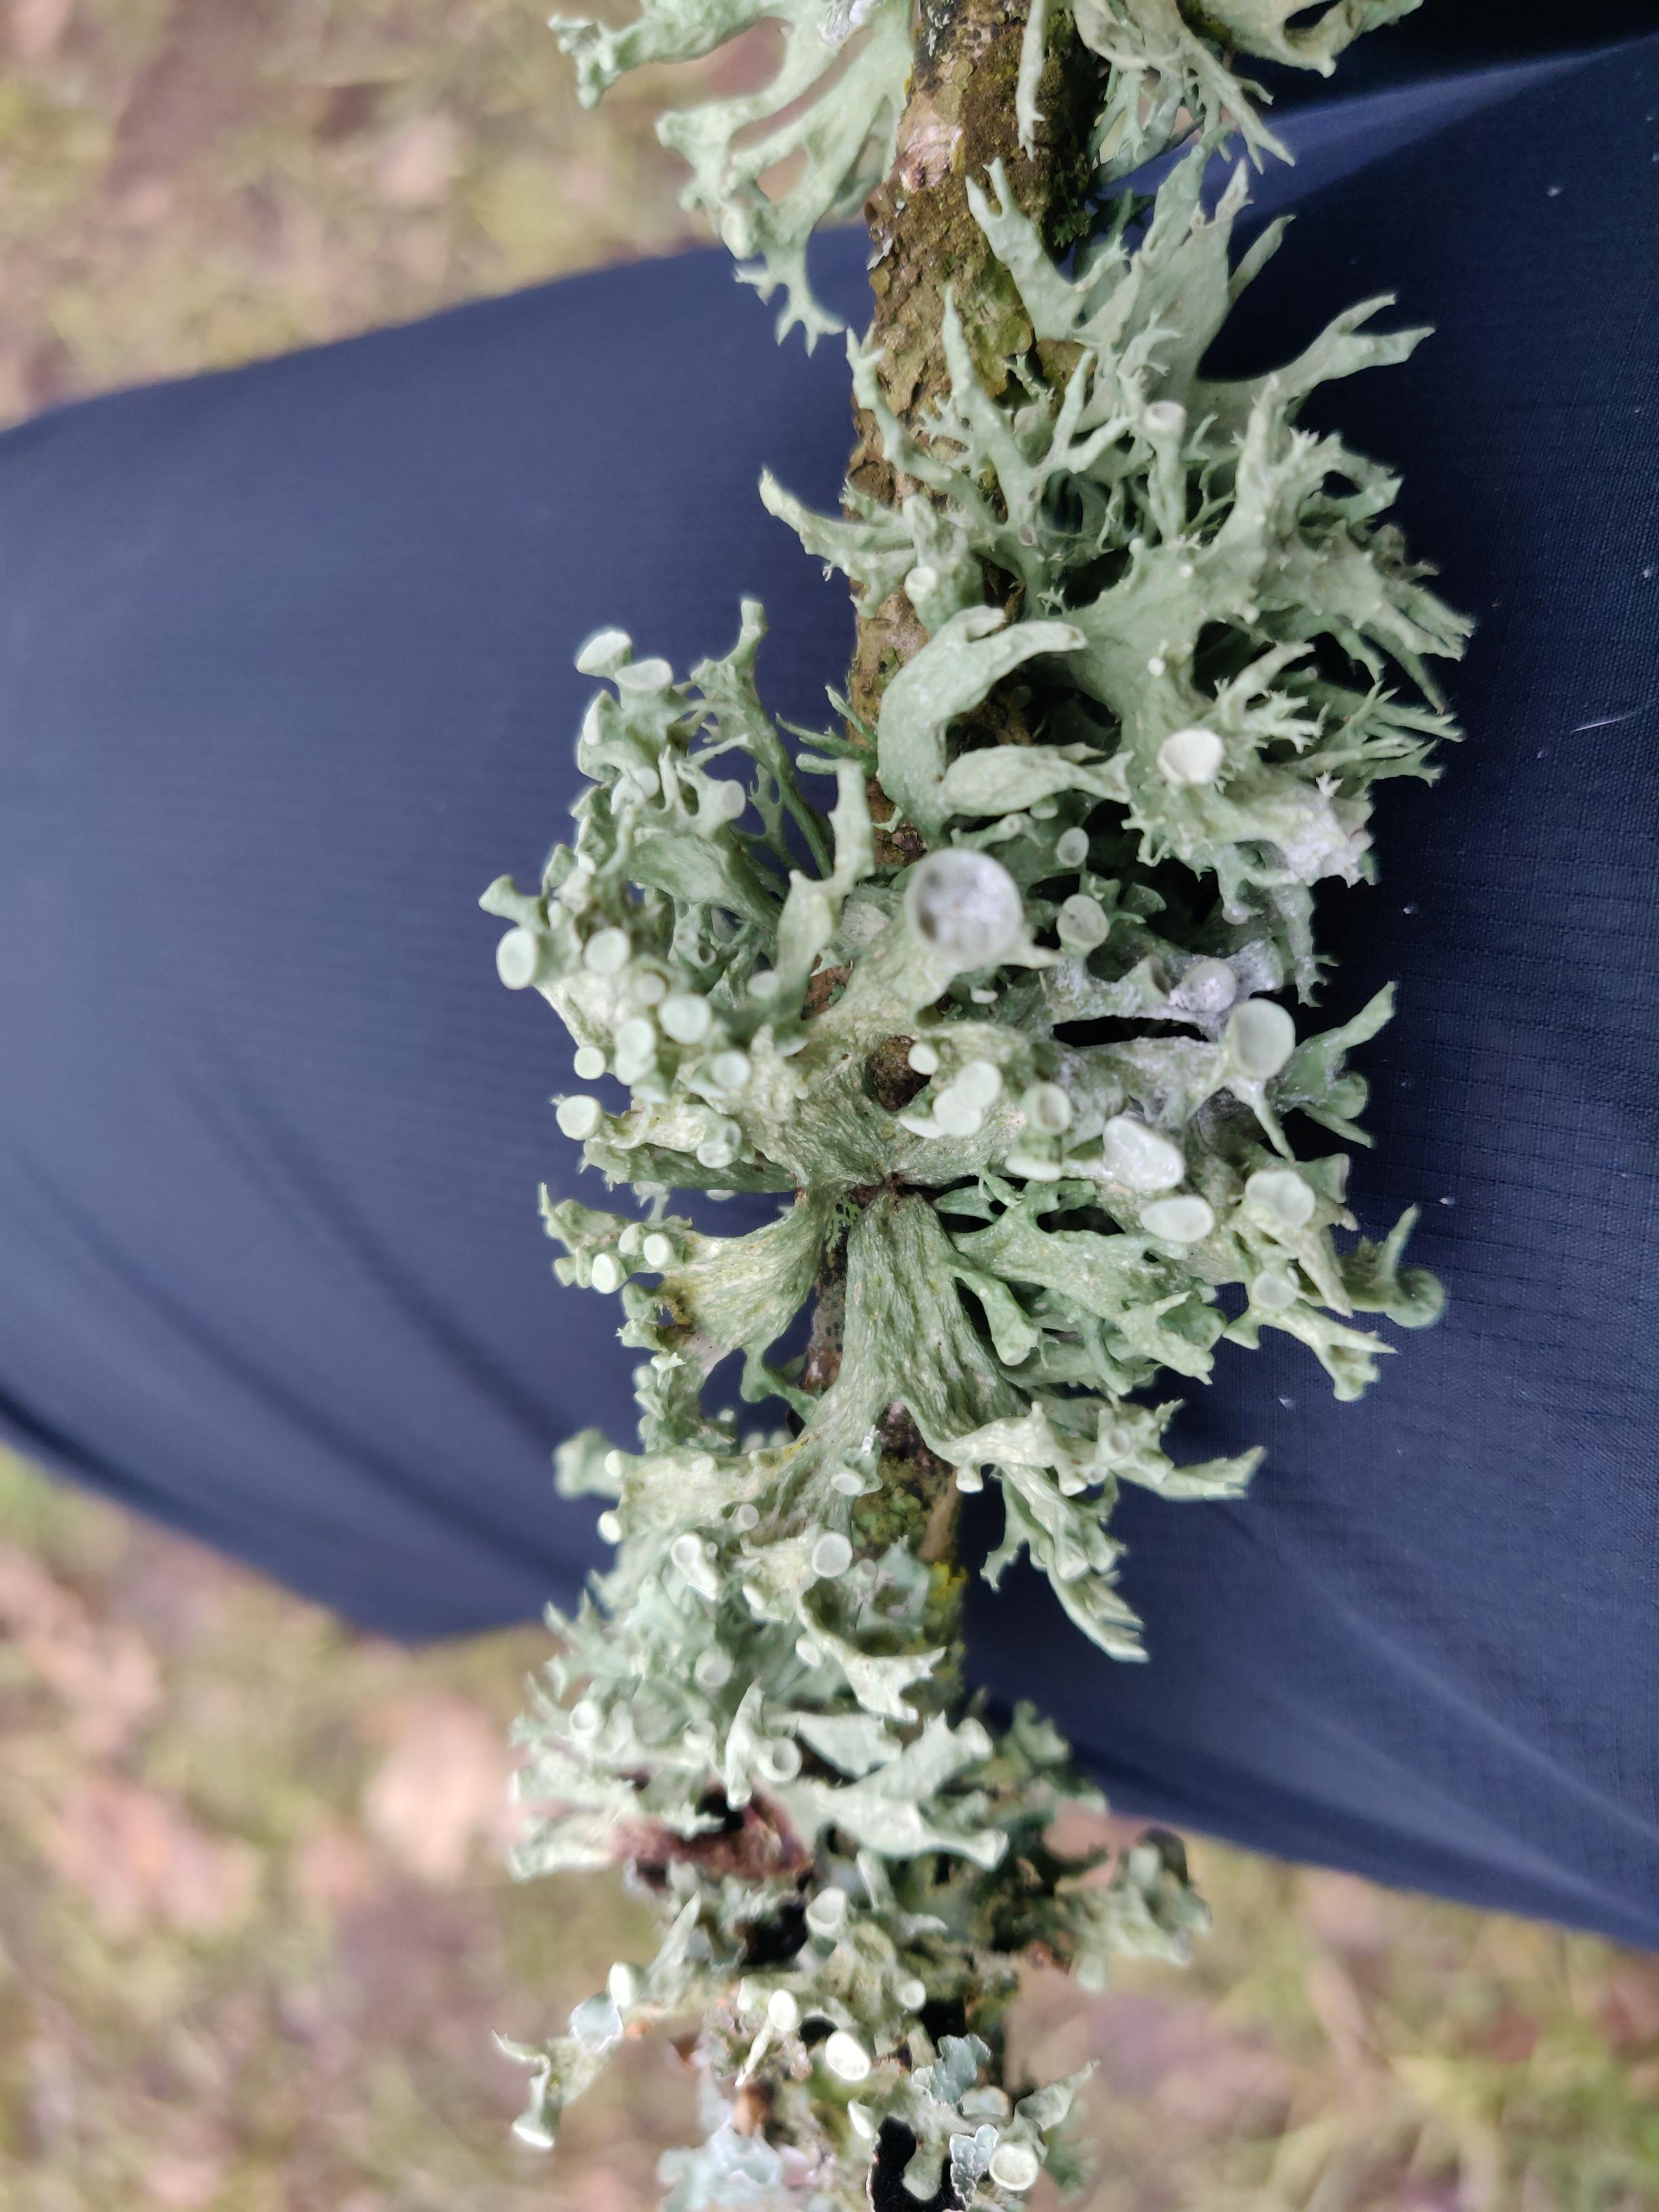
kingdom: Fungi
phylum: Ascomycota
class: Lecanoromycetes
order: Lecanorales
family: Ramalinaceae
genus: Ramalina
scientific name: Ramalina fastigiata
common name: tue-grenlav
